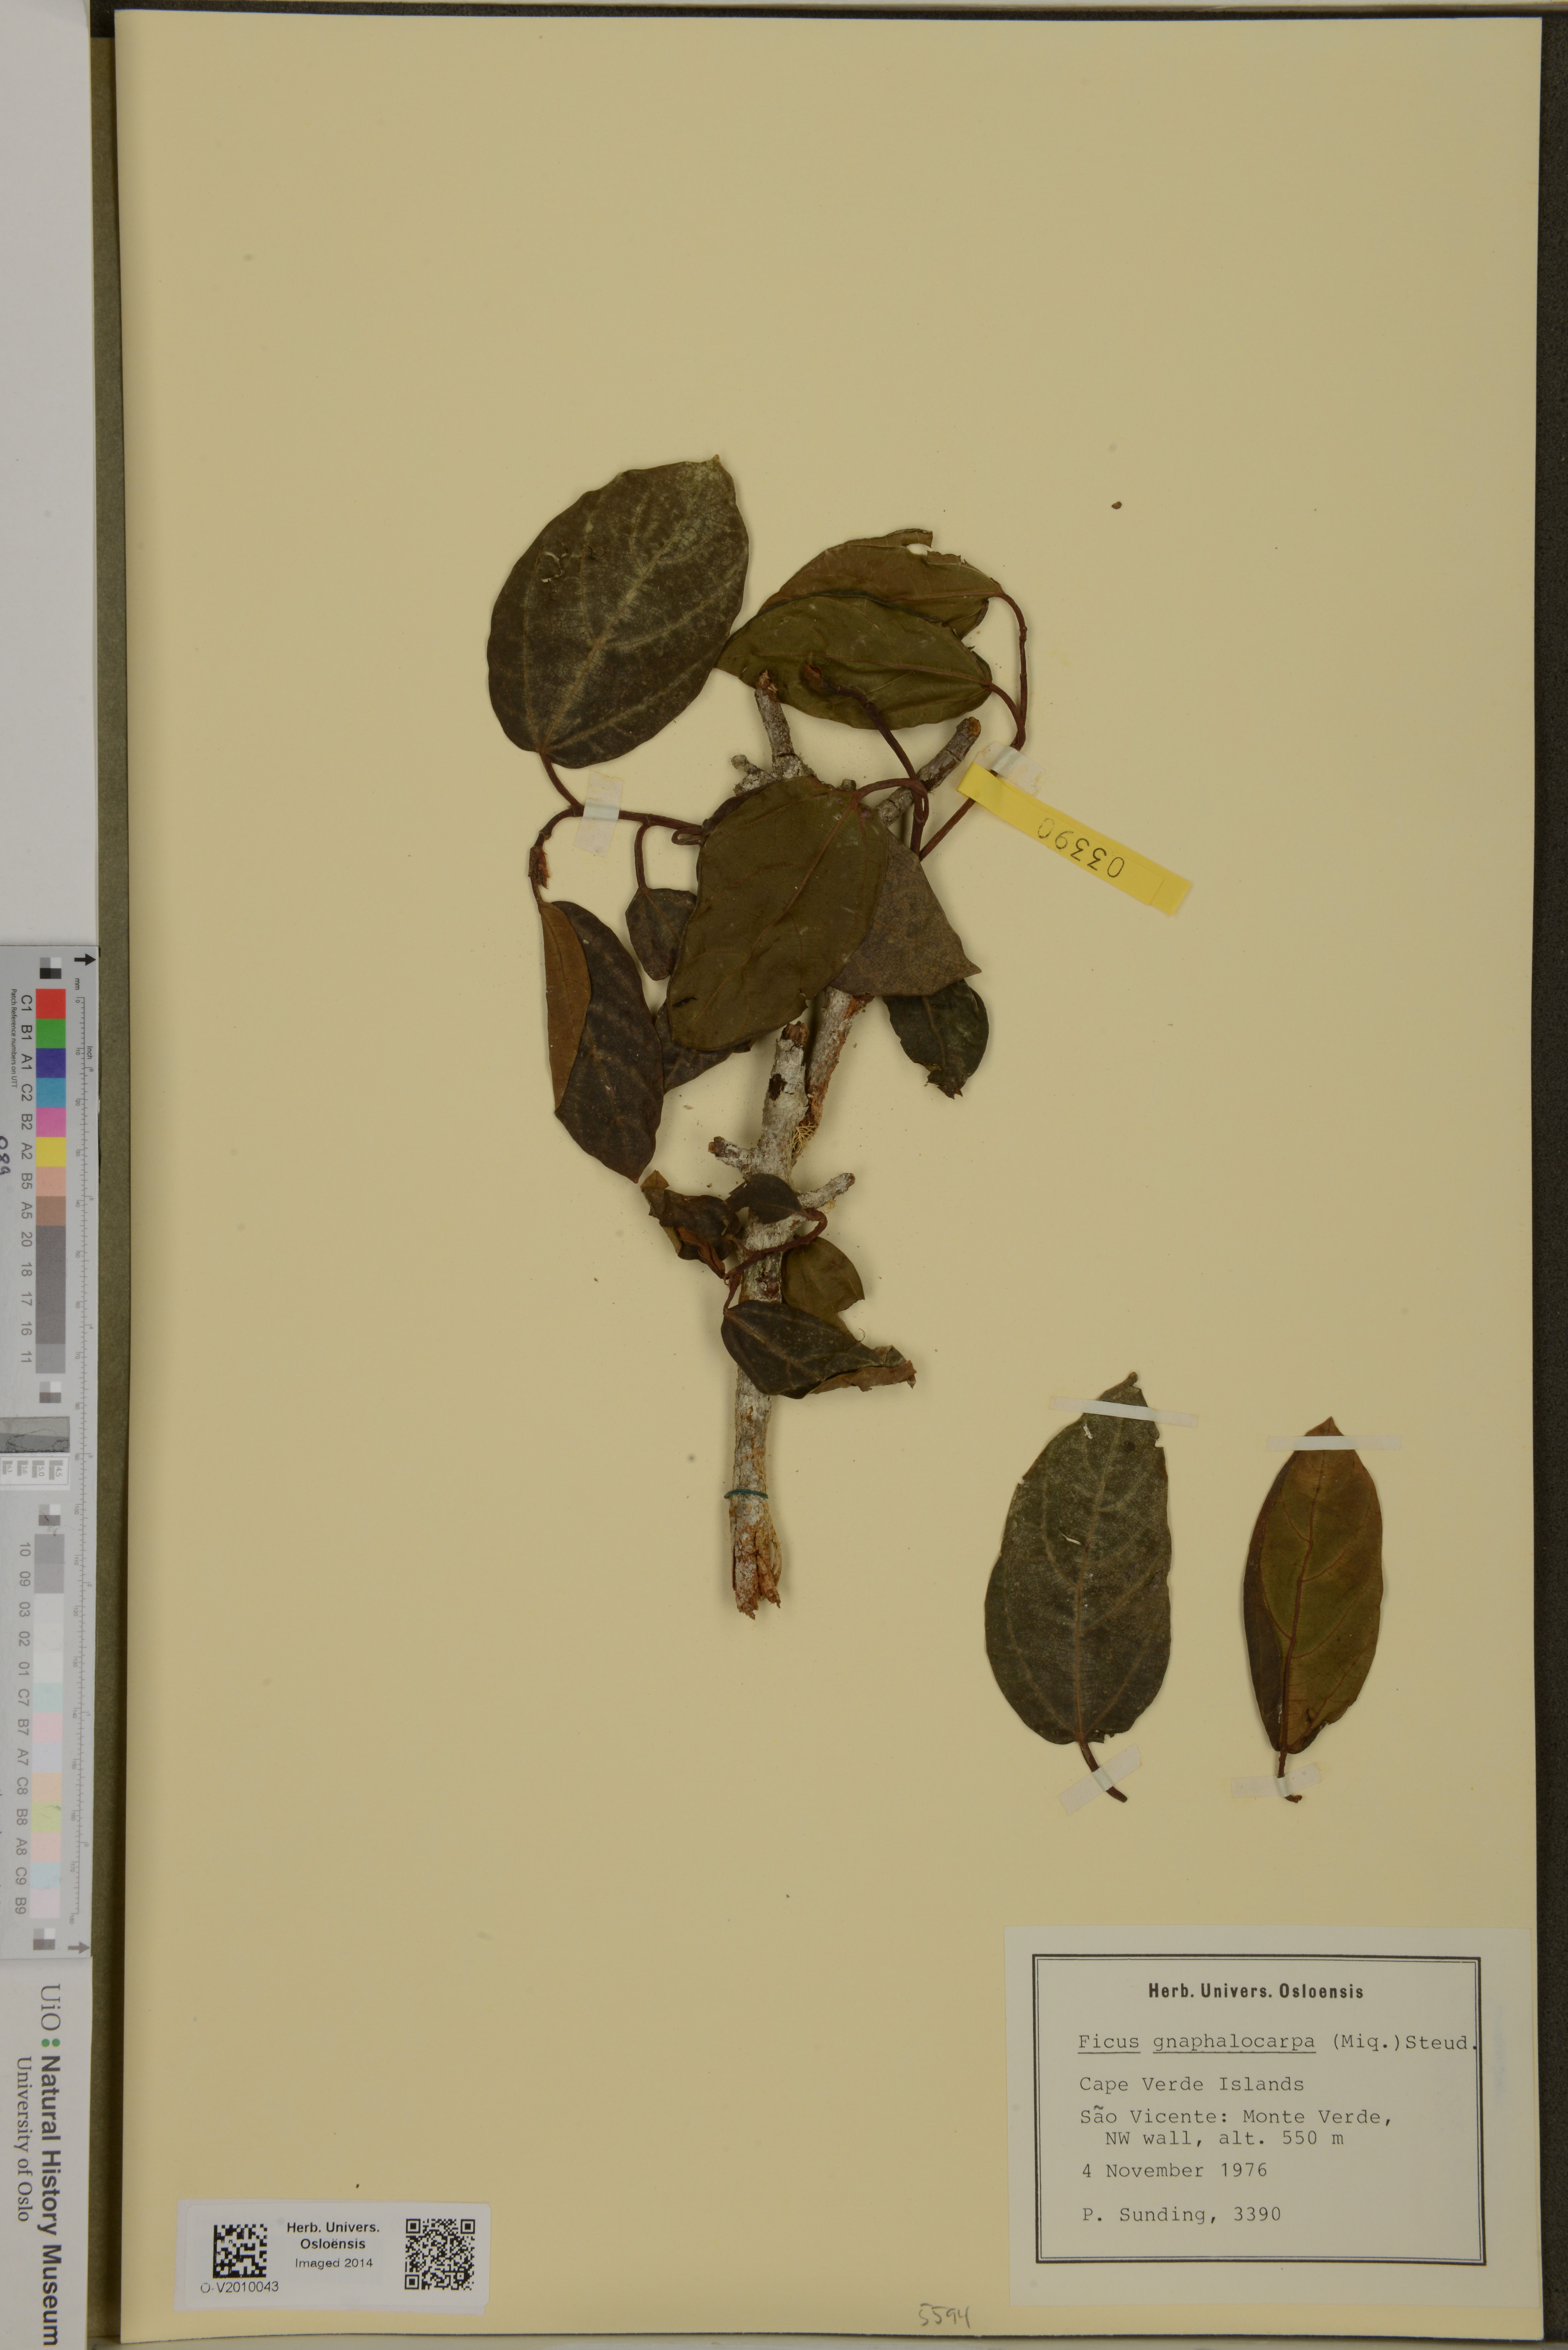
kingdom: Plantae
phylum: Tracheophyta
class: Magnoliopsida
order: Rosales
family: Moraceae
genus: Ficus
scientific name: Ficus sycomorus
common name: Sycomore
